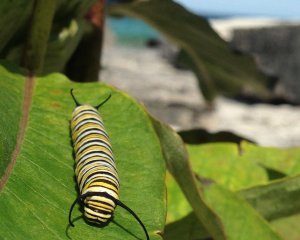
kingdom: Animalia
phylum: Arthropoda
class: Insecta
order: Lepidoptera
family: Nymphalidae
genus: Danaus
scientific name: Danaus plexippus
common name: Monarch
